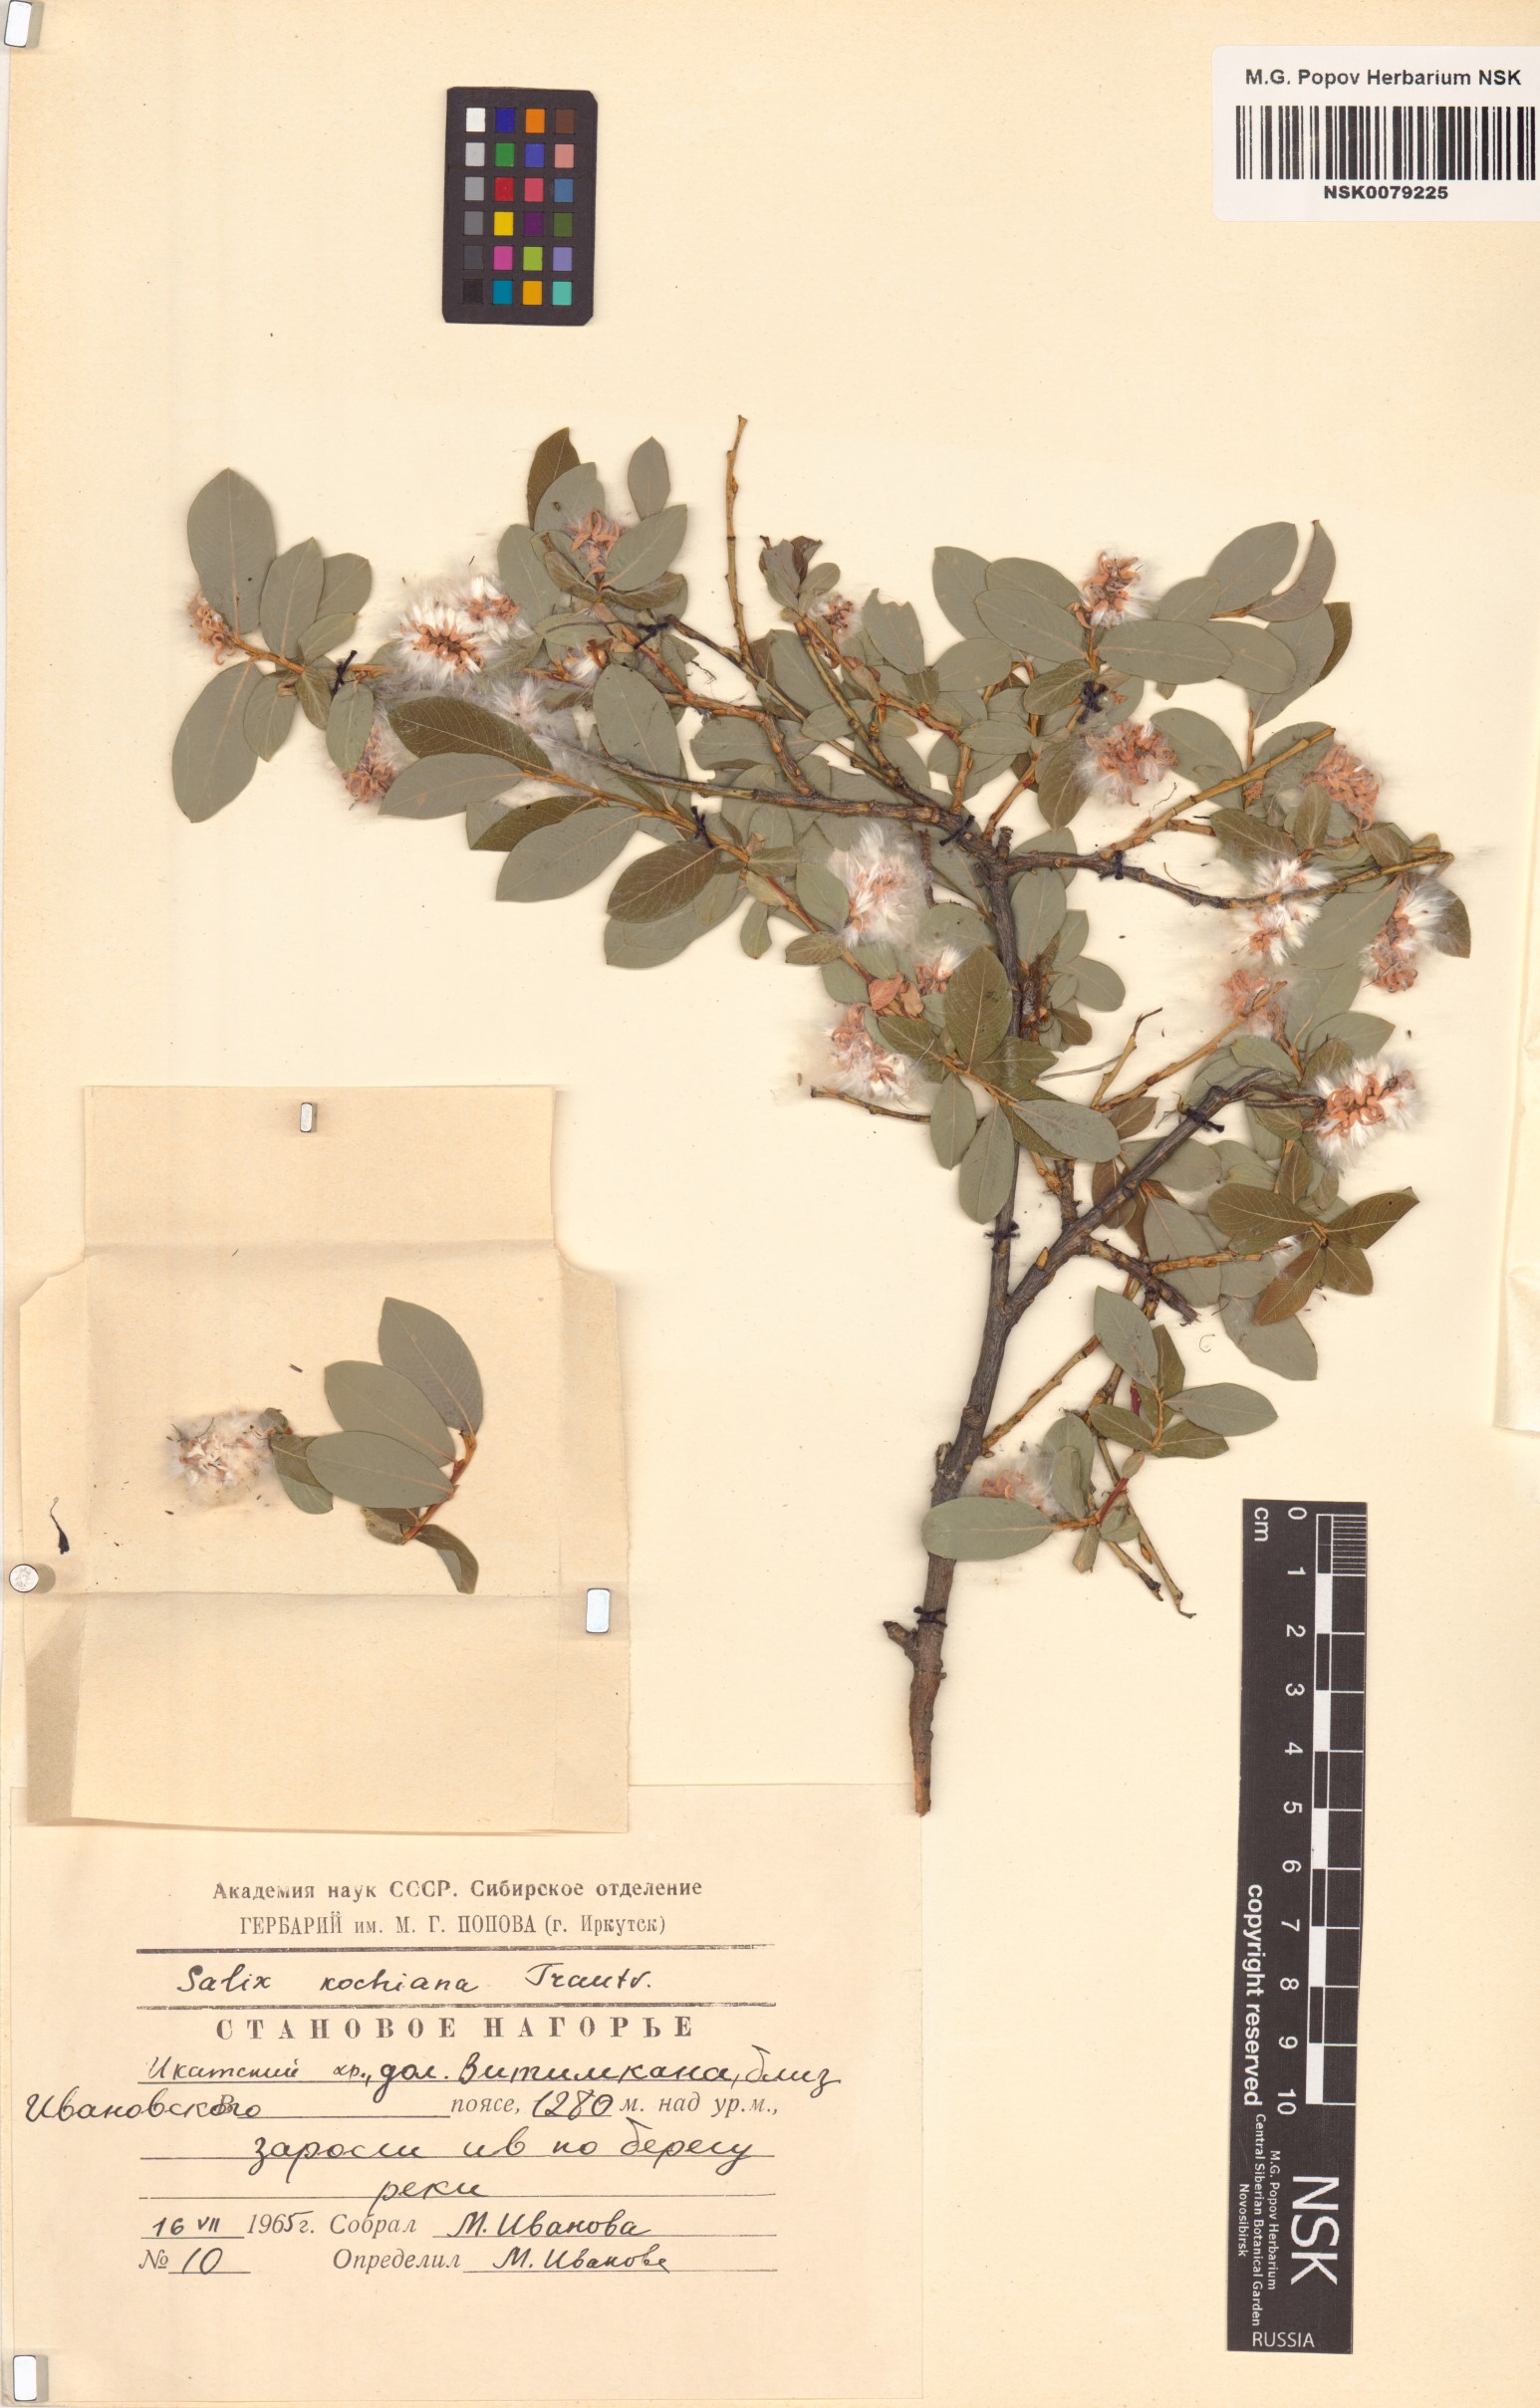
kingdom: Plantae
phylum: Tracheophyta
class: Magnoliopsida
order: Malpighiales
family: Salicaceae
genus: Salix
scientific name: Salix kochiana
